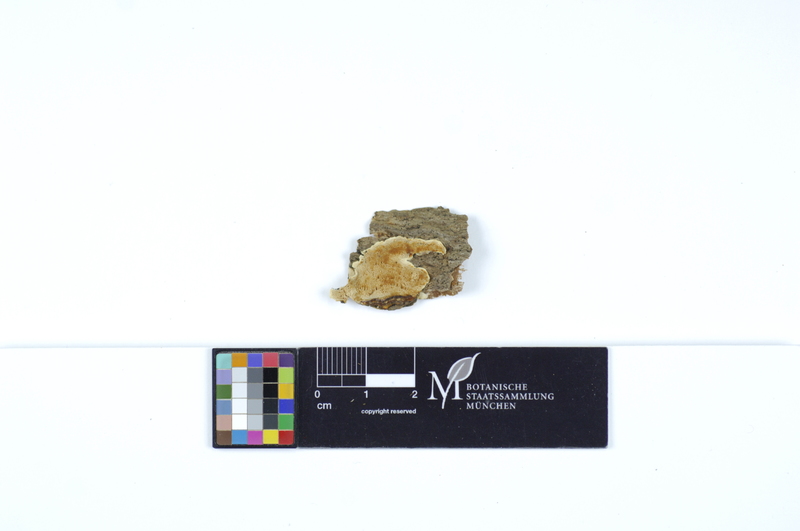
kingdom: Fungi
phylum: Basidiomycota
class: Agaricomycetes
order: Polyporales
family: Steccherinaceae
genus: Antrodiella
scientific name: Antrodiella onychoides
